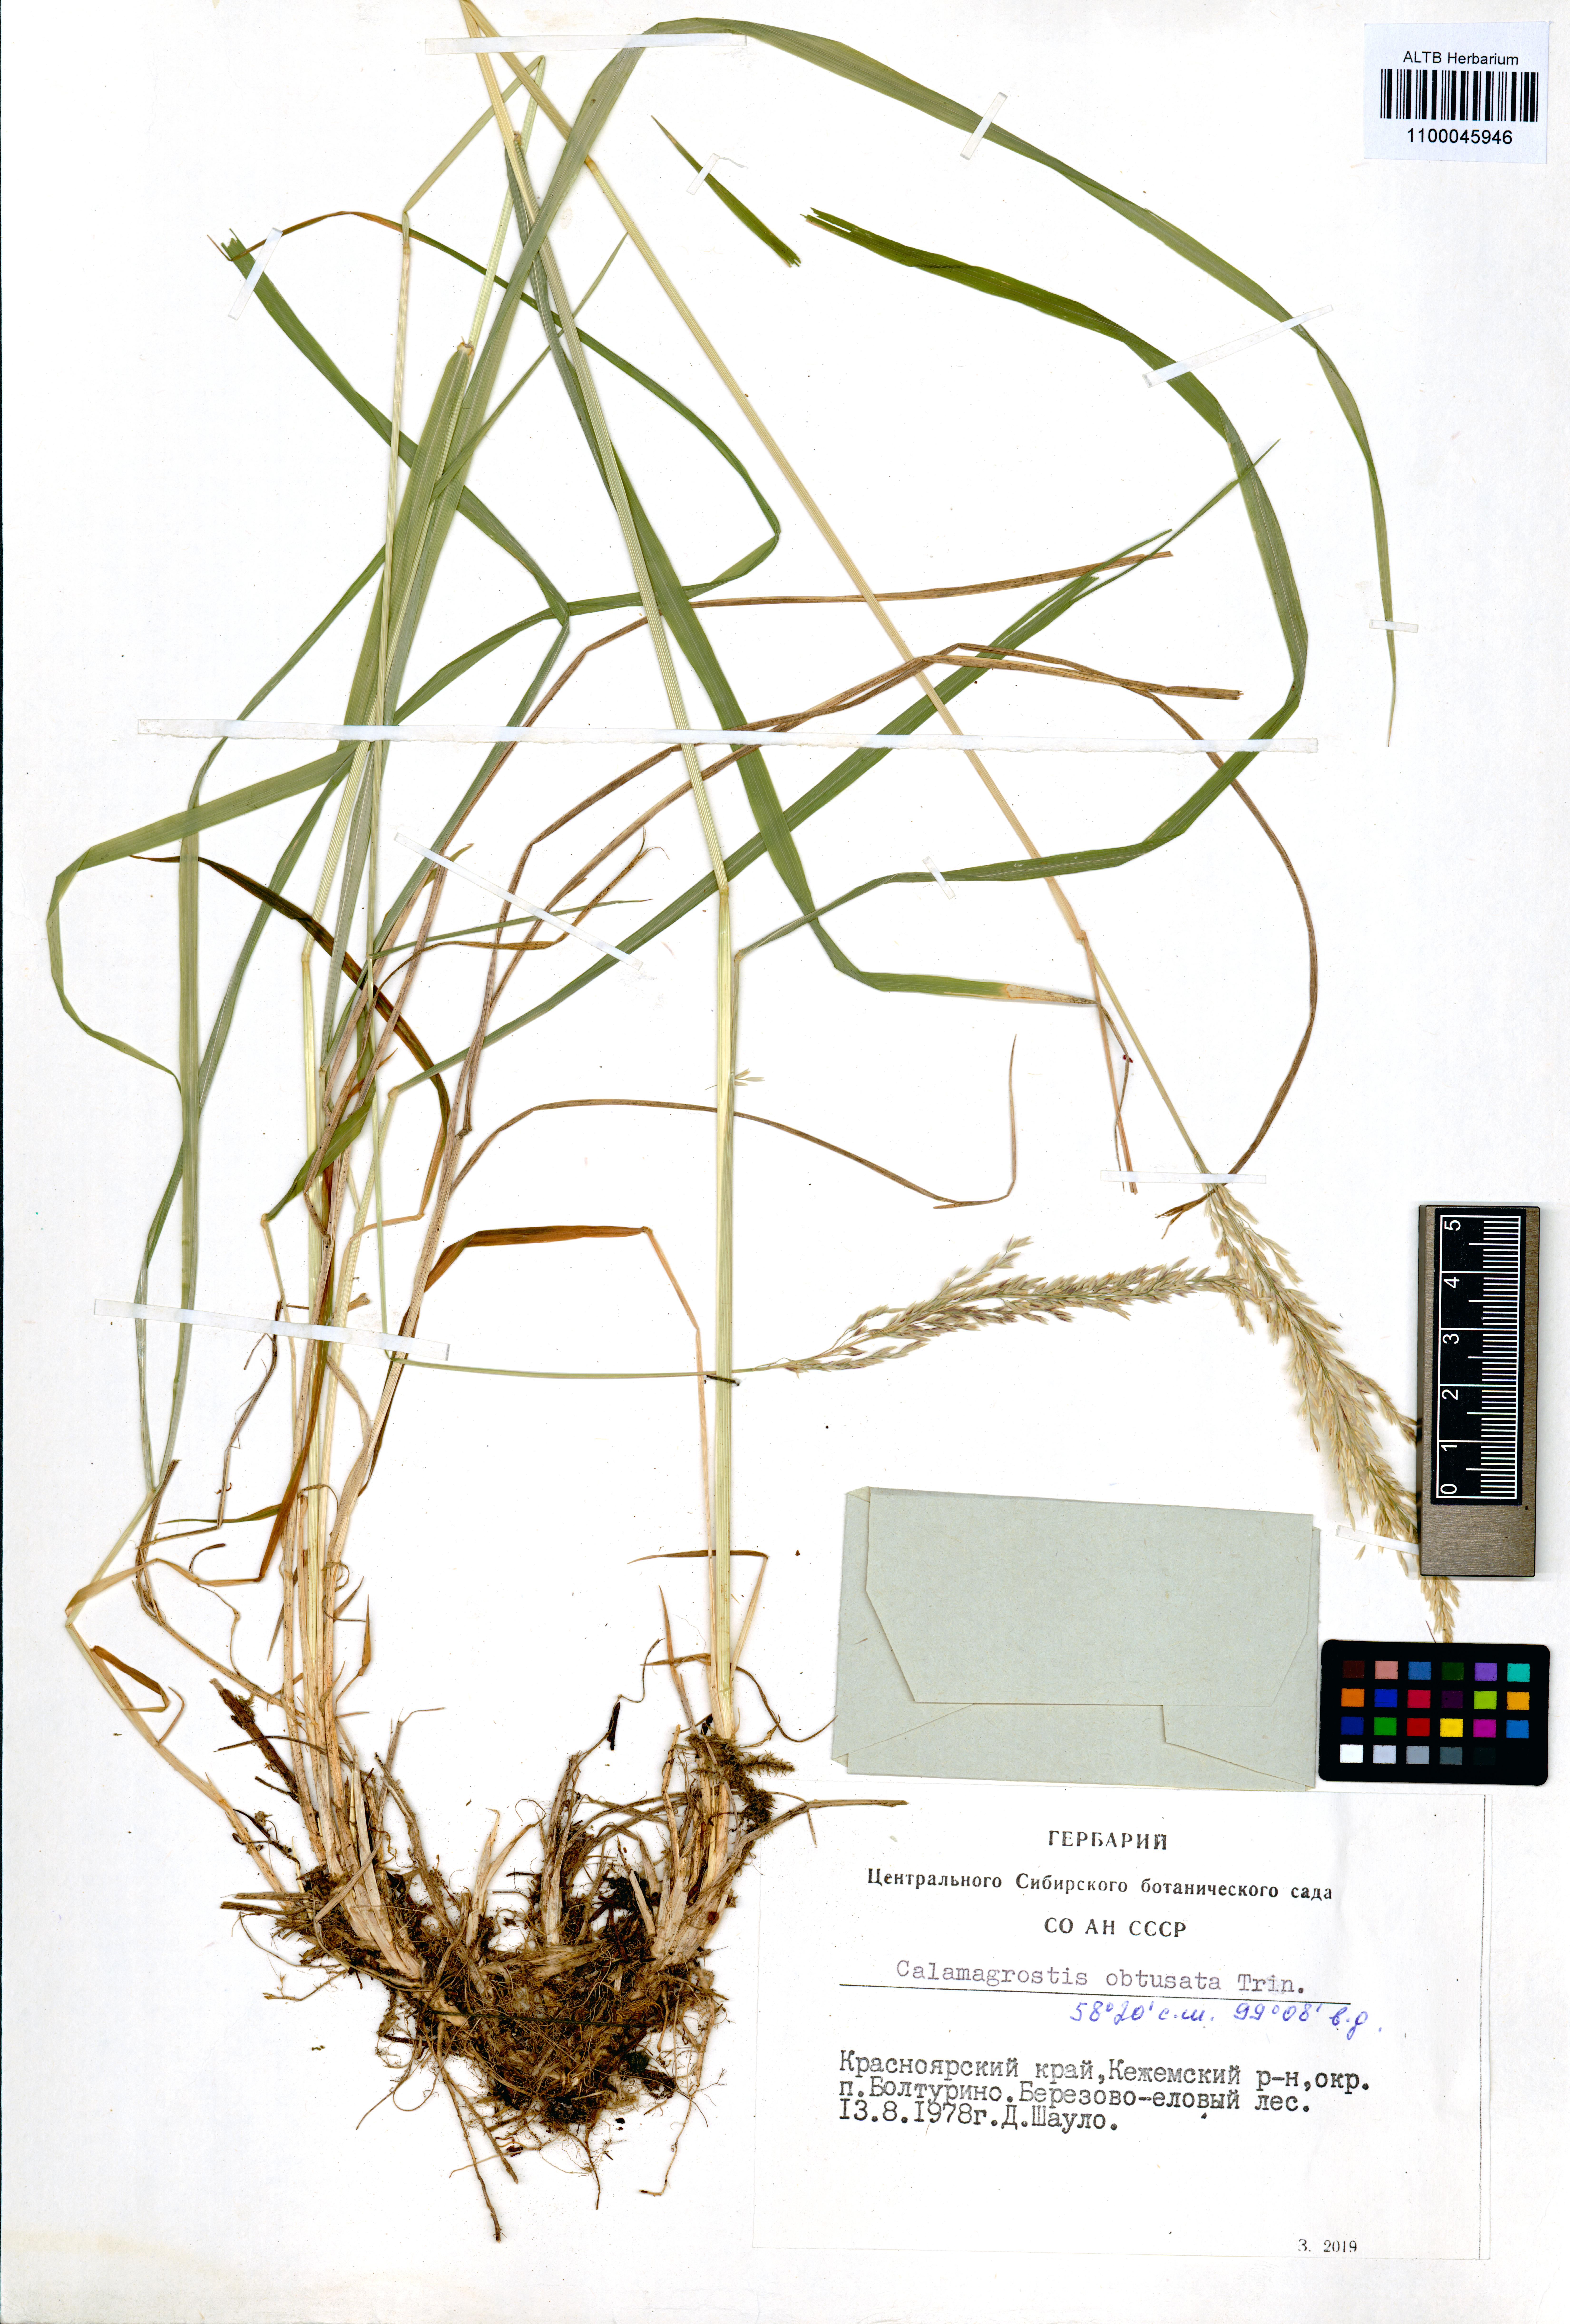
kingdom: Plantae
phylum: Tracheophyta
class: Liliopsida
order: Poales
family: Poaceae
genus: Calamagrostis
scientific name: Calamagrostis obtusata
